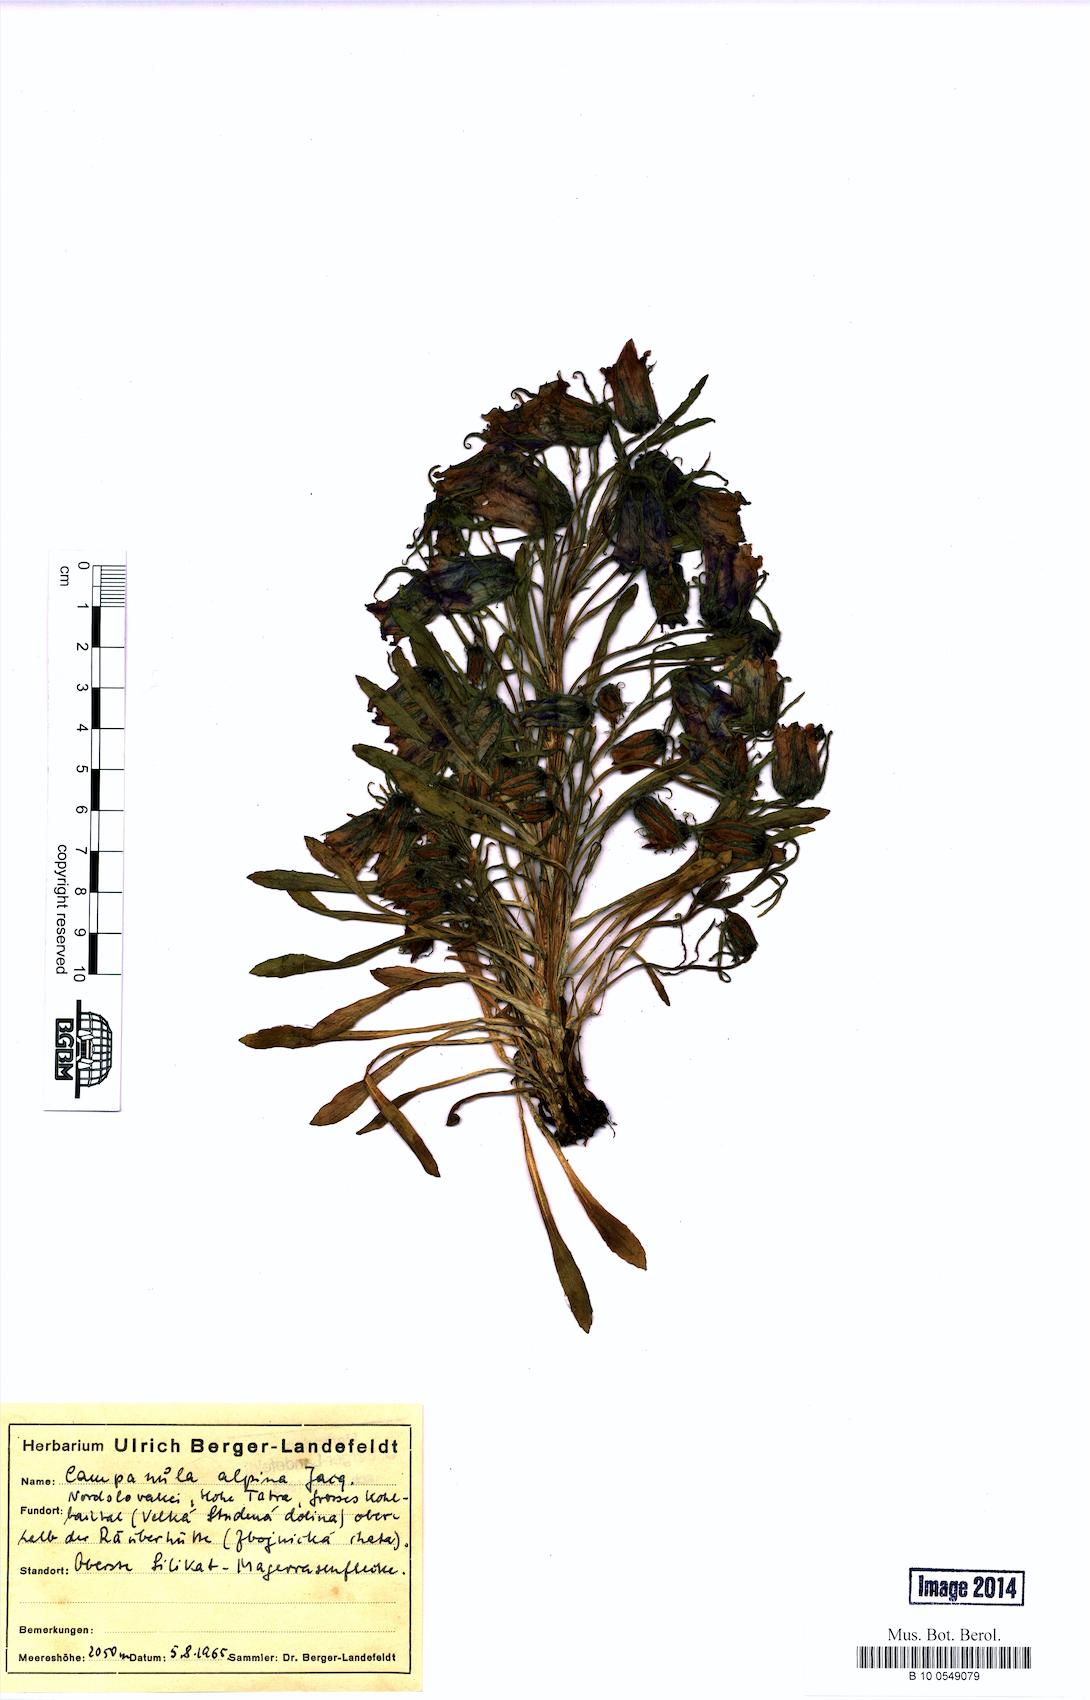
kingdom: Plantae
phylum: Tracheophyta
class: Magnoliopsida
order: Asterales
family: Campanulaceae
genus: Campanula
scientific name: Campanula alpina
